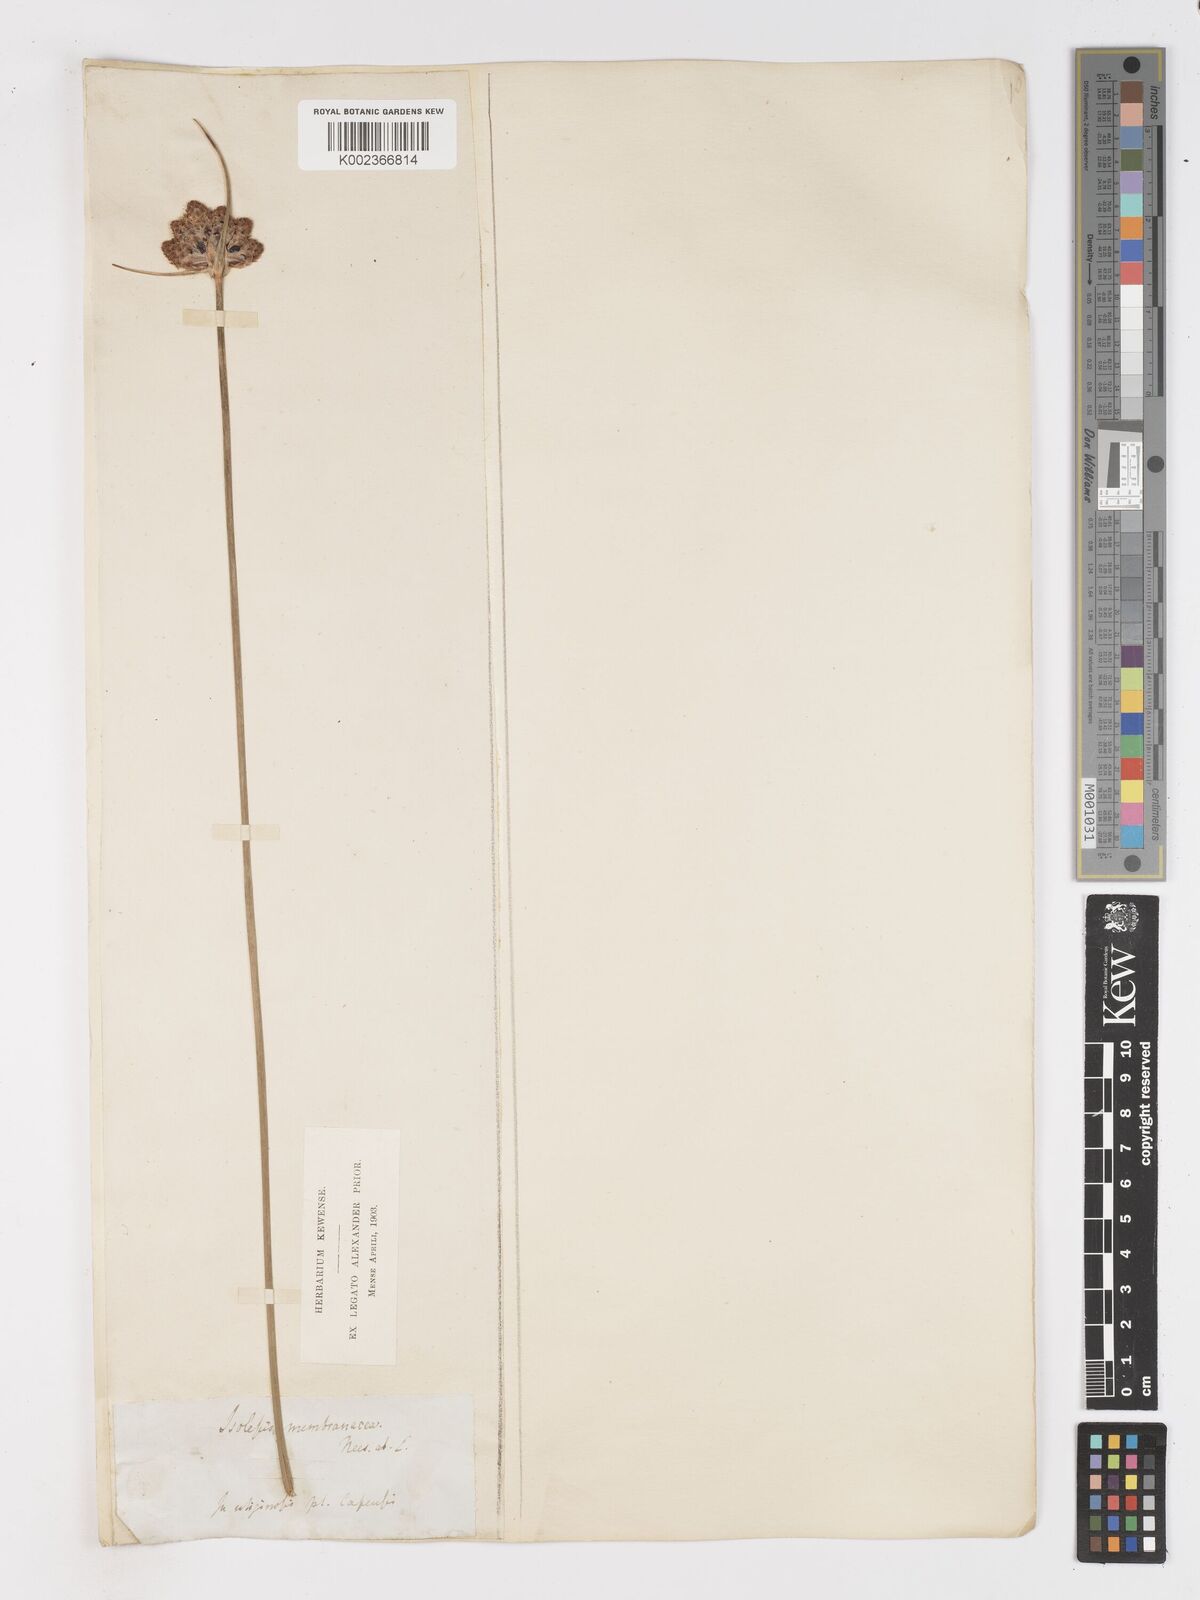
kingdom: Plantae
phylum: Tracheophyta
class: Liliopsida
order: Poales
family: Cyperaceae
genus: Hellmuthia
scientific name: Hellmuthia membranacea
